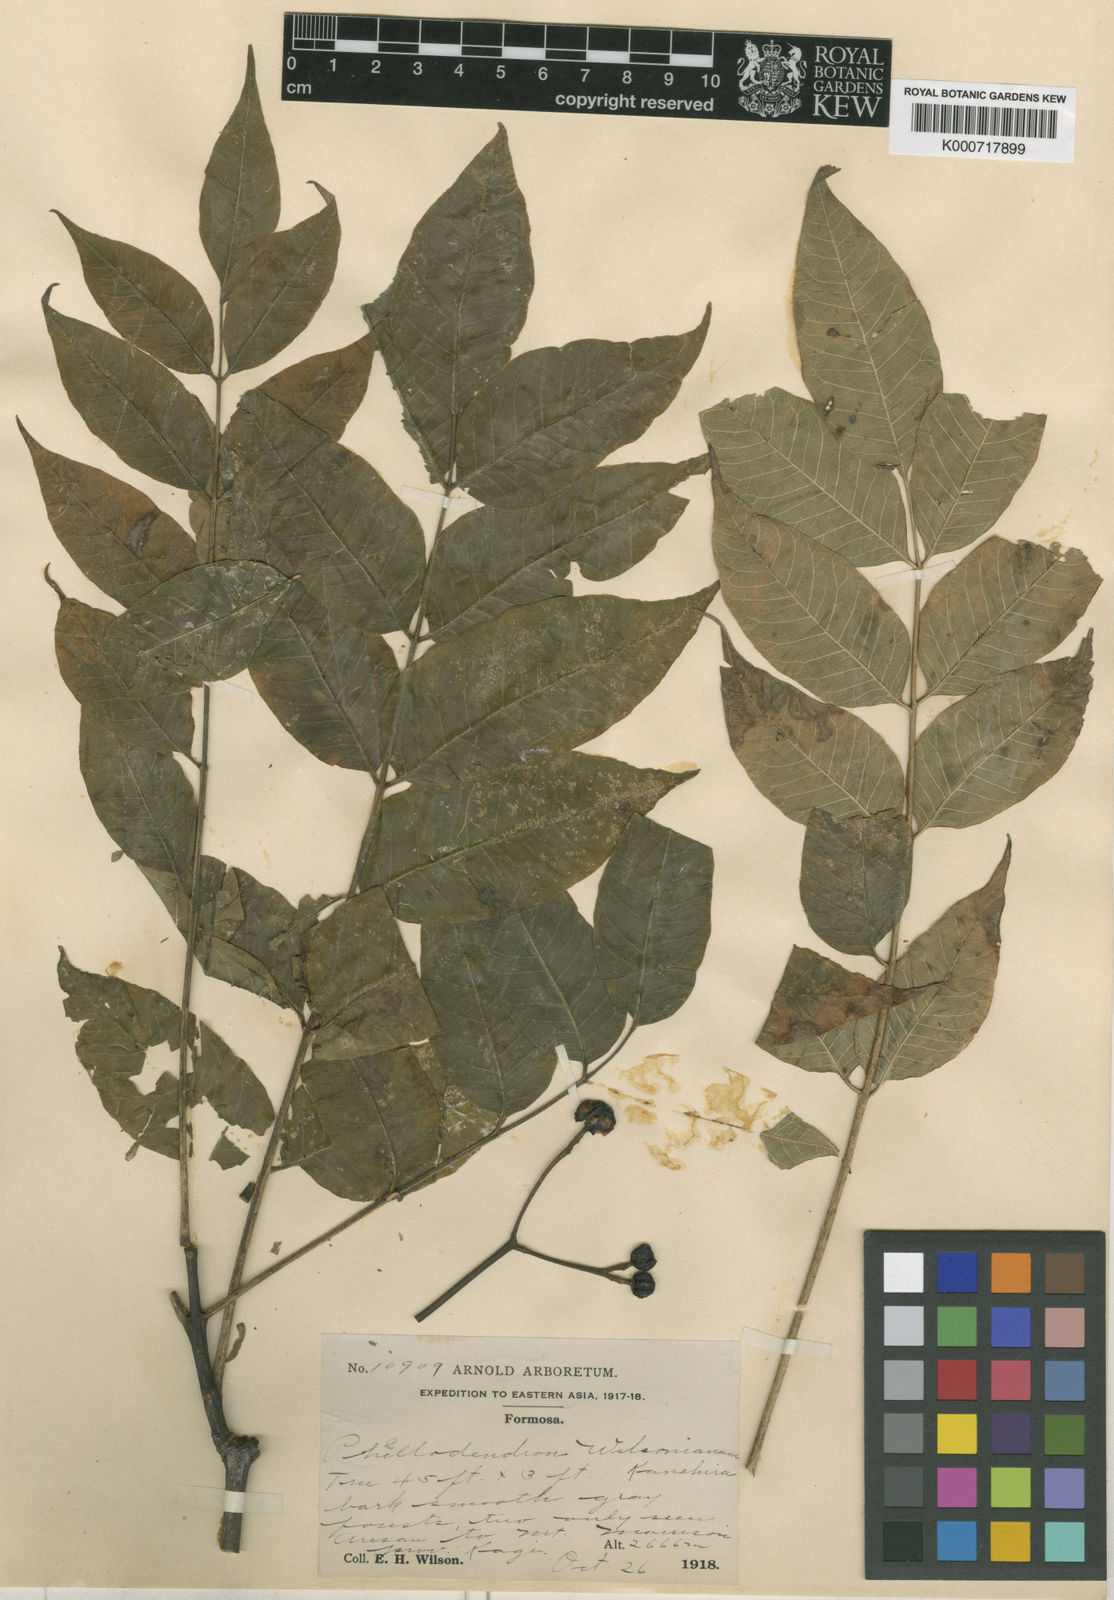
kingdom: Plantae
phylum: Tracheophyta
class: Magnoliopsida
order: Sapindales
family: Rutaceae
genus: Phellodendron
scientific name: Phellodendron chinense
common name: Phellodendron
